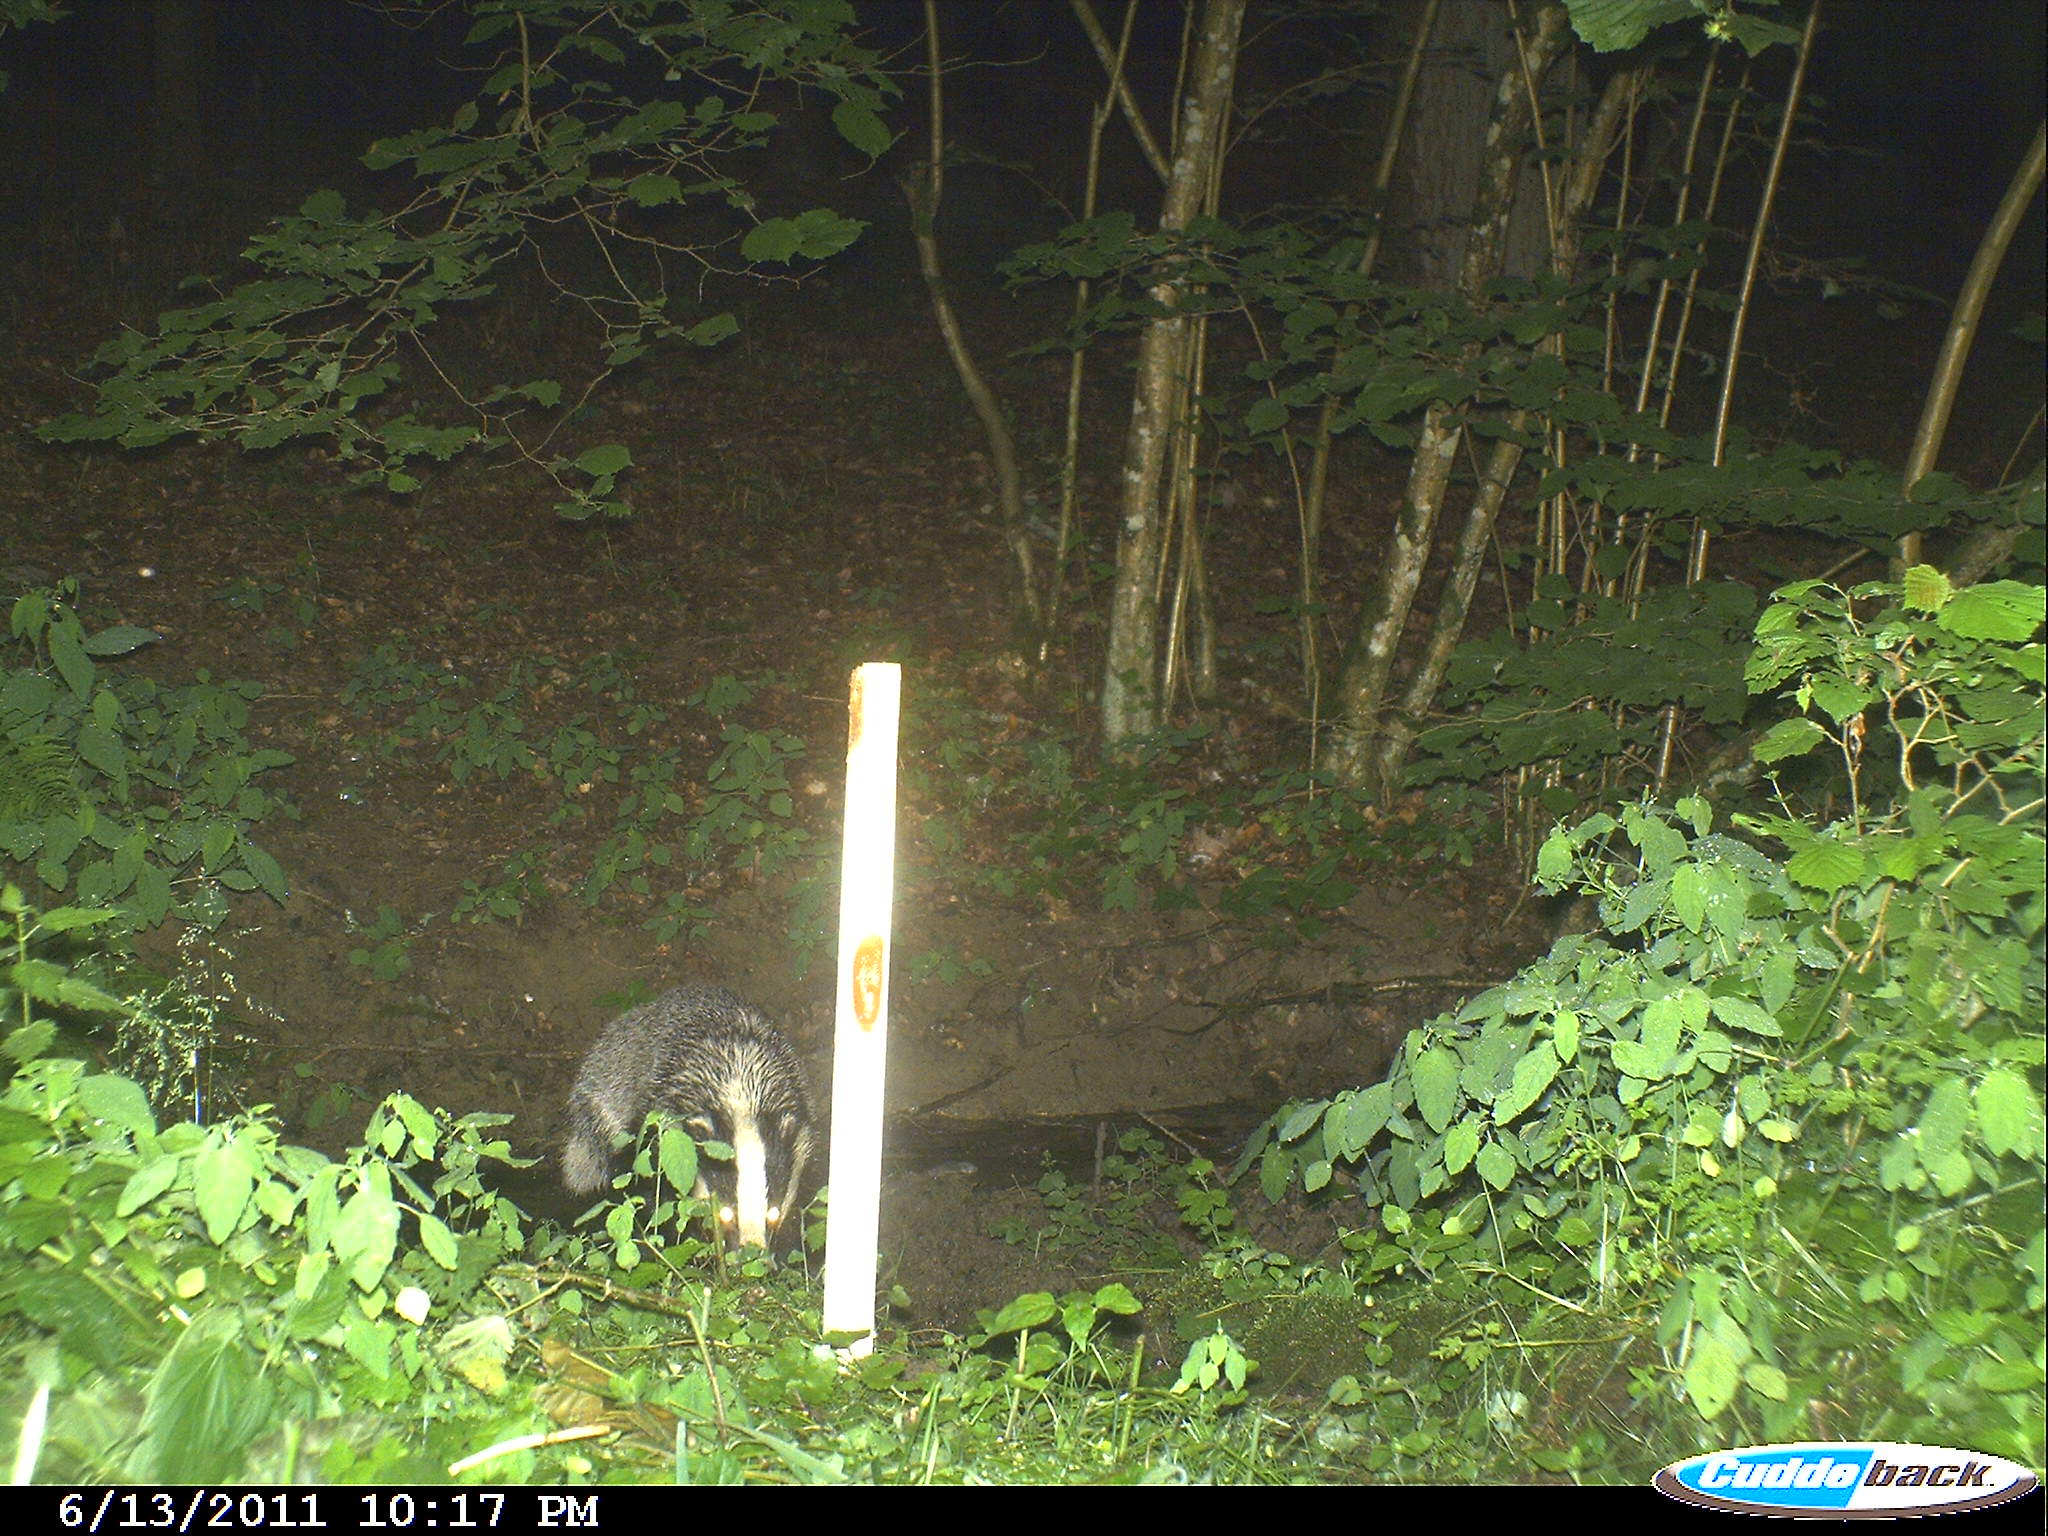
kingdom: Animalia
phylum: Chordata
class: Mammalia
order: Carnivora
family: Mustelidae
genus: Meles
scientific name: Meles meles
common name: Eurasian badger
